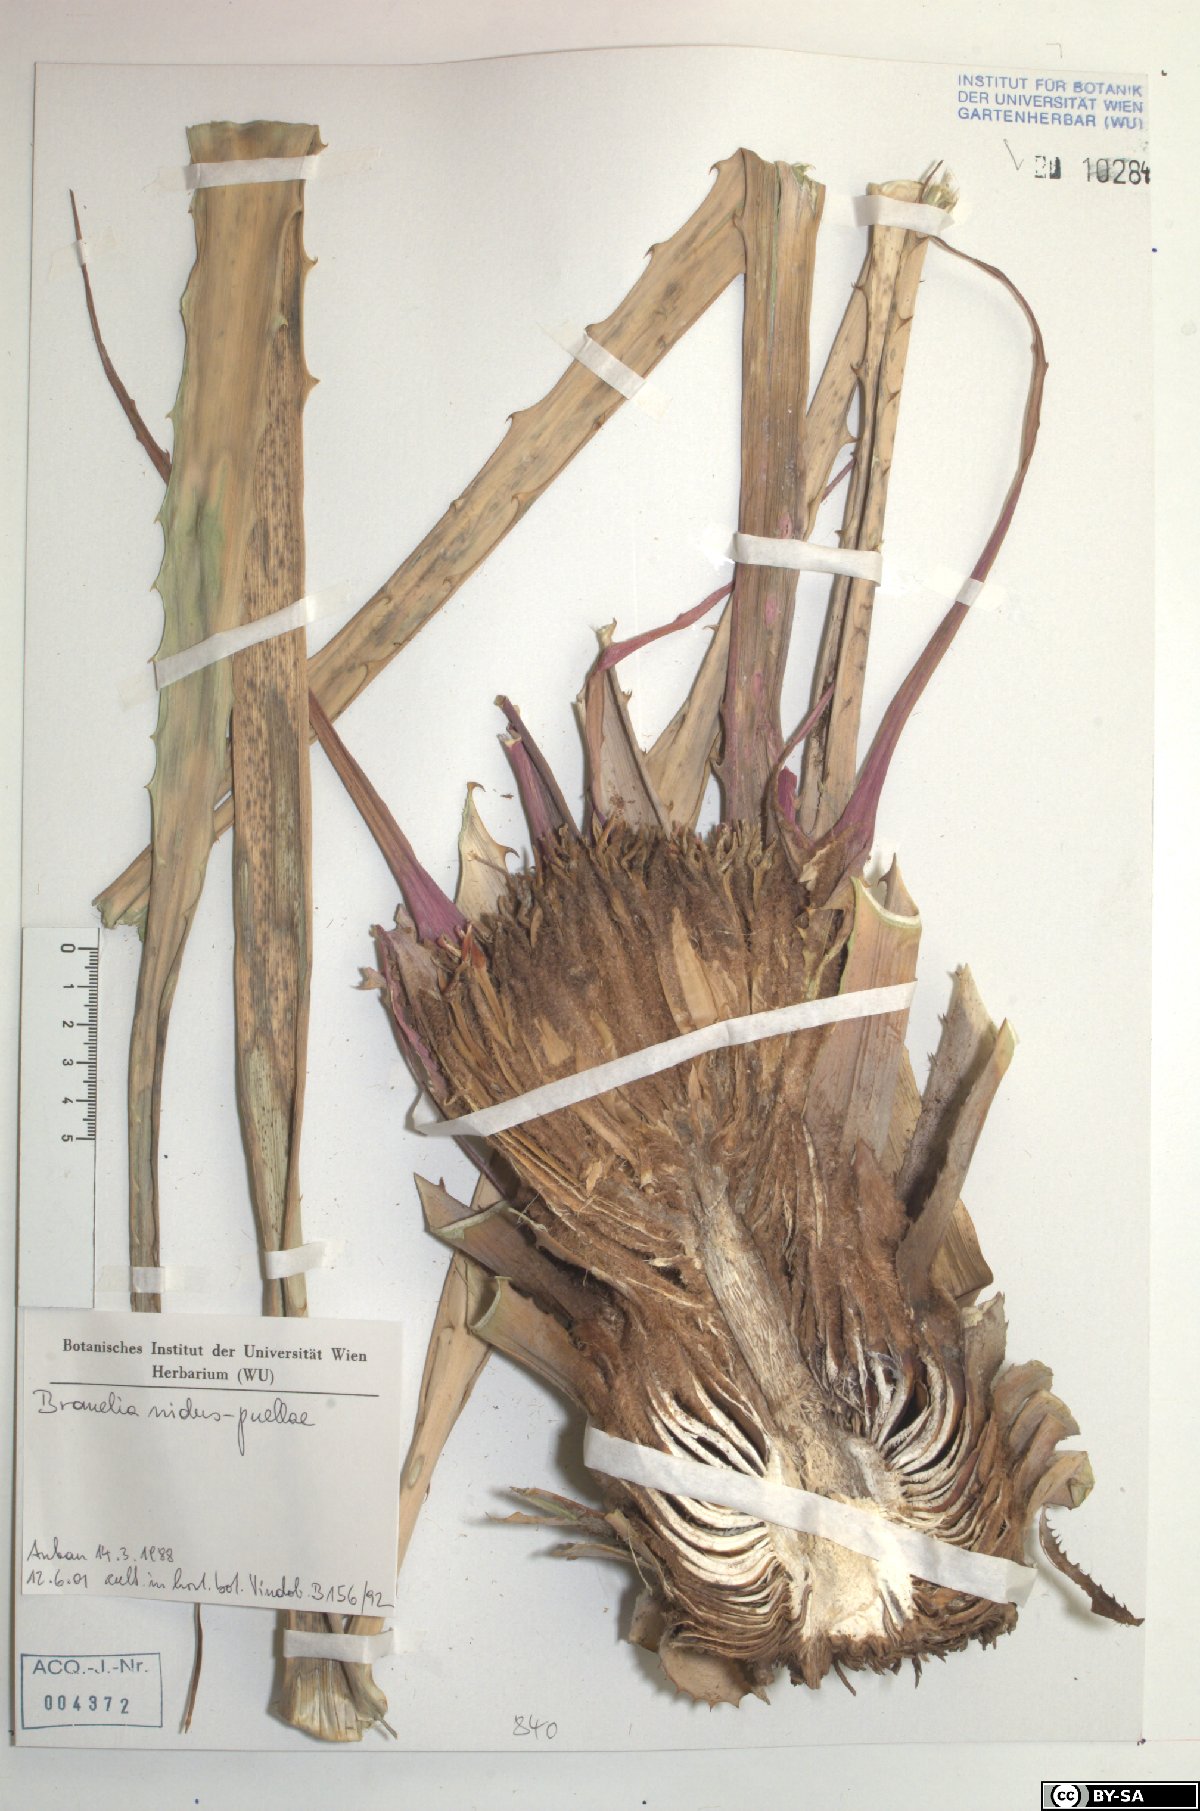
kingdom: Plantae
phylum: Tracheophyta
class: Liliopsida
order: Poales
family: Bromeliaceae
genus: Bromelia
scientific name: Bromelia nidus-puellae
